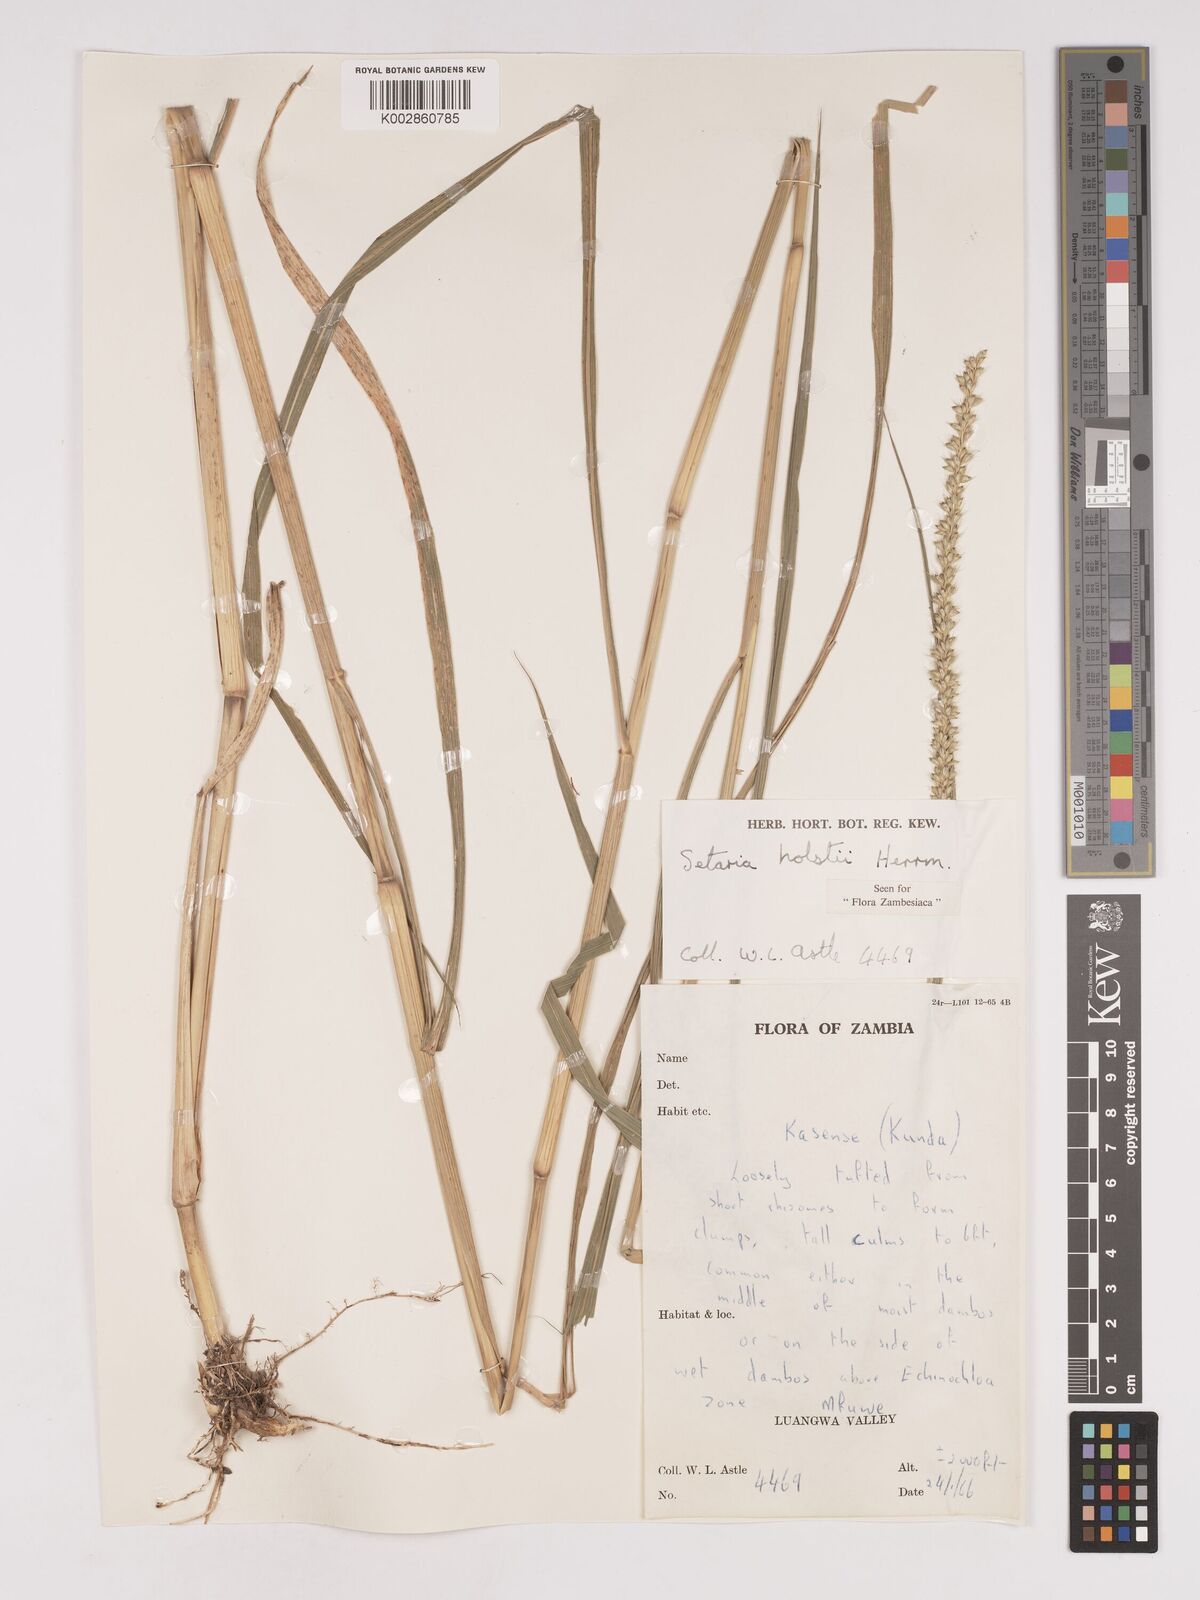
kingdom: Plantae
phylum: Tracheophyta
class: Liliopsida
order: Poales
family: Poaceae
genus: Setaria
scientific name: Setaria incrassata
